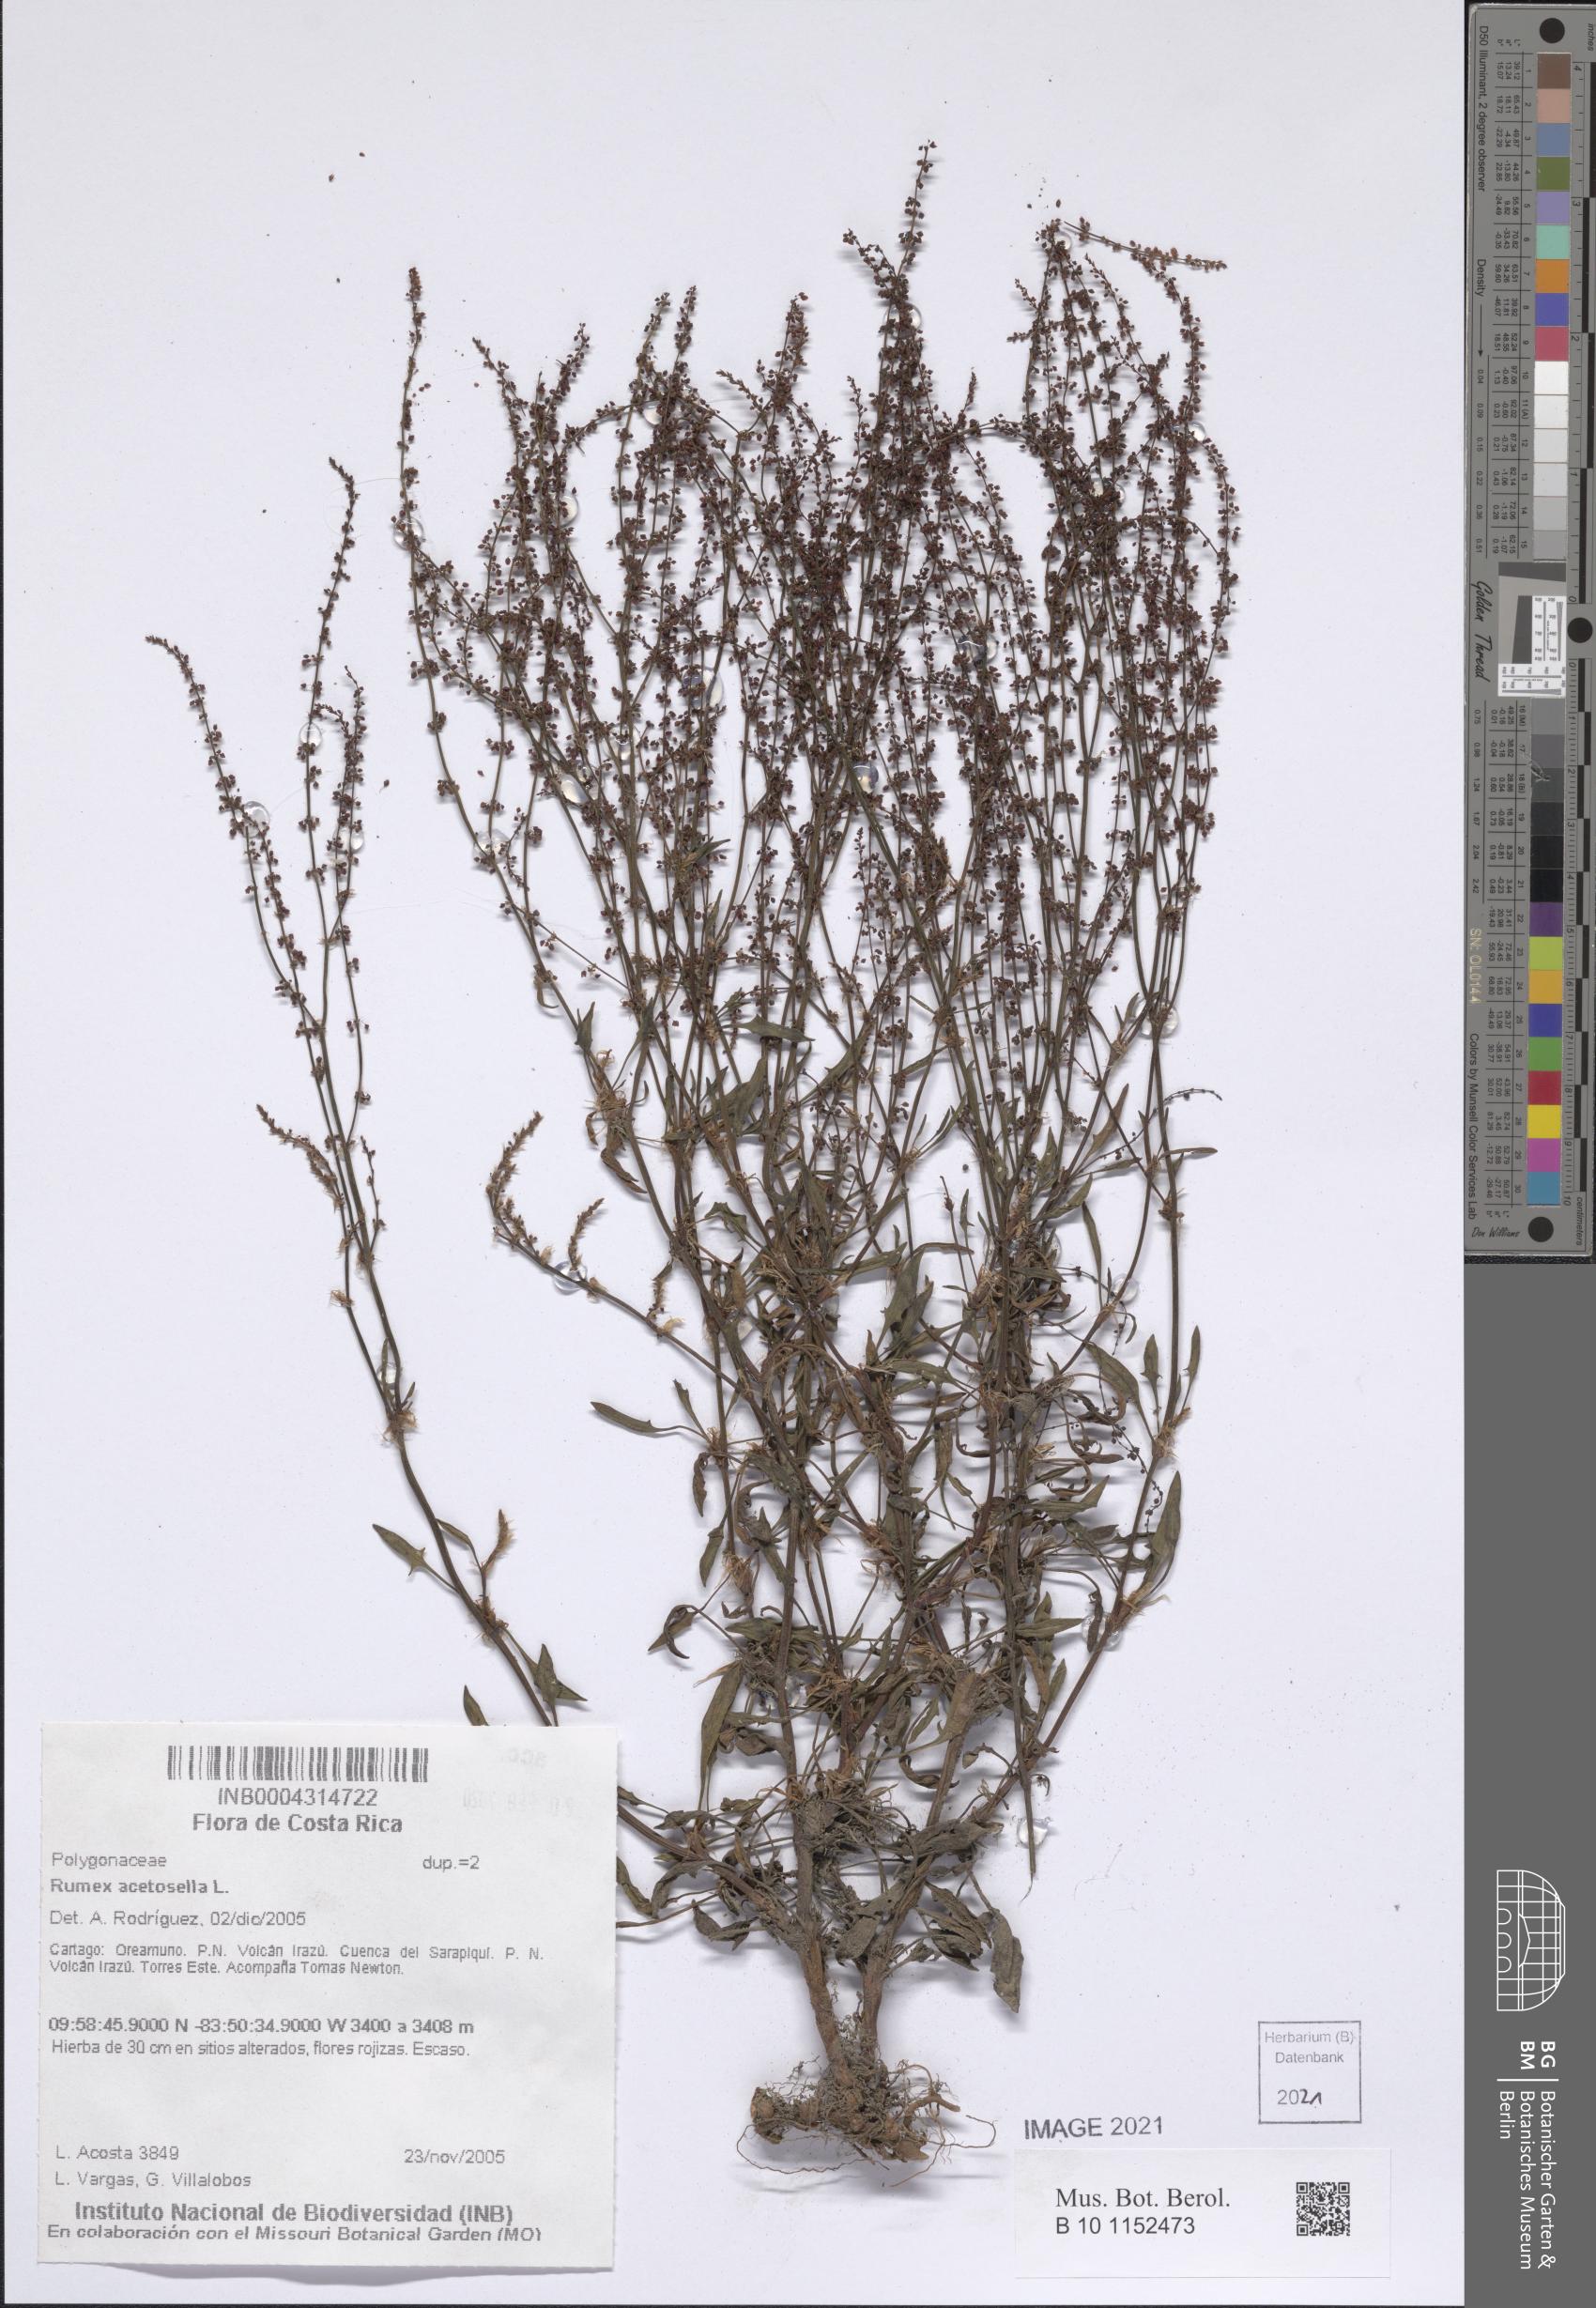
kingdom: Plantae
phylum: Tracheophyta
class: Magnoliopsida
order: Caryophyllales
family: Polygonaceae
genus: Rumex
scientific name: Rumex acetosella
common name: Common sheep sorrel
